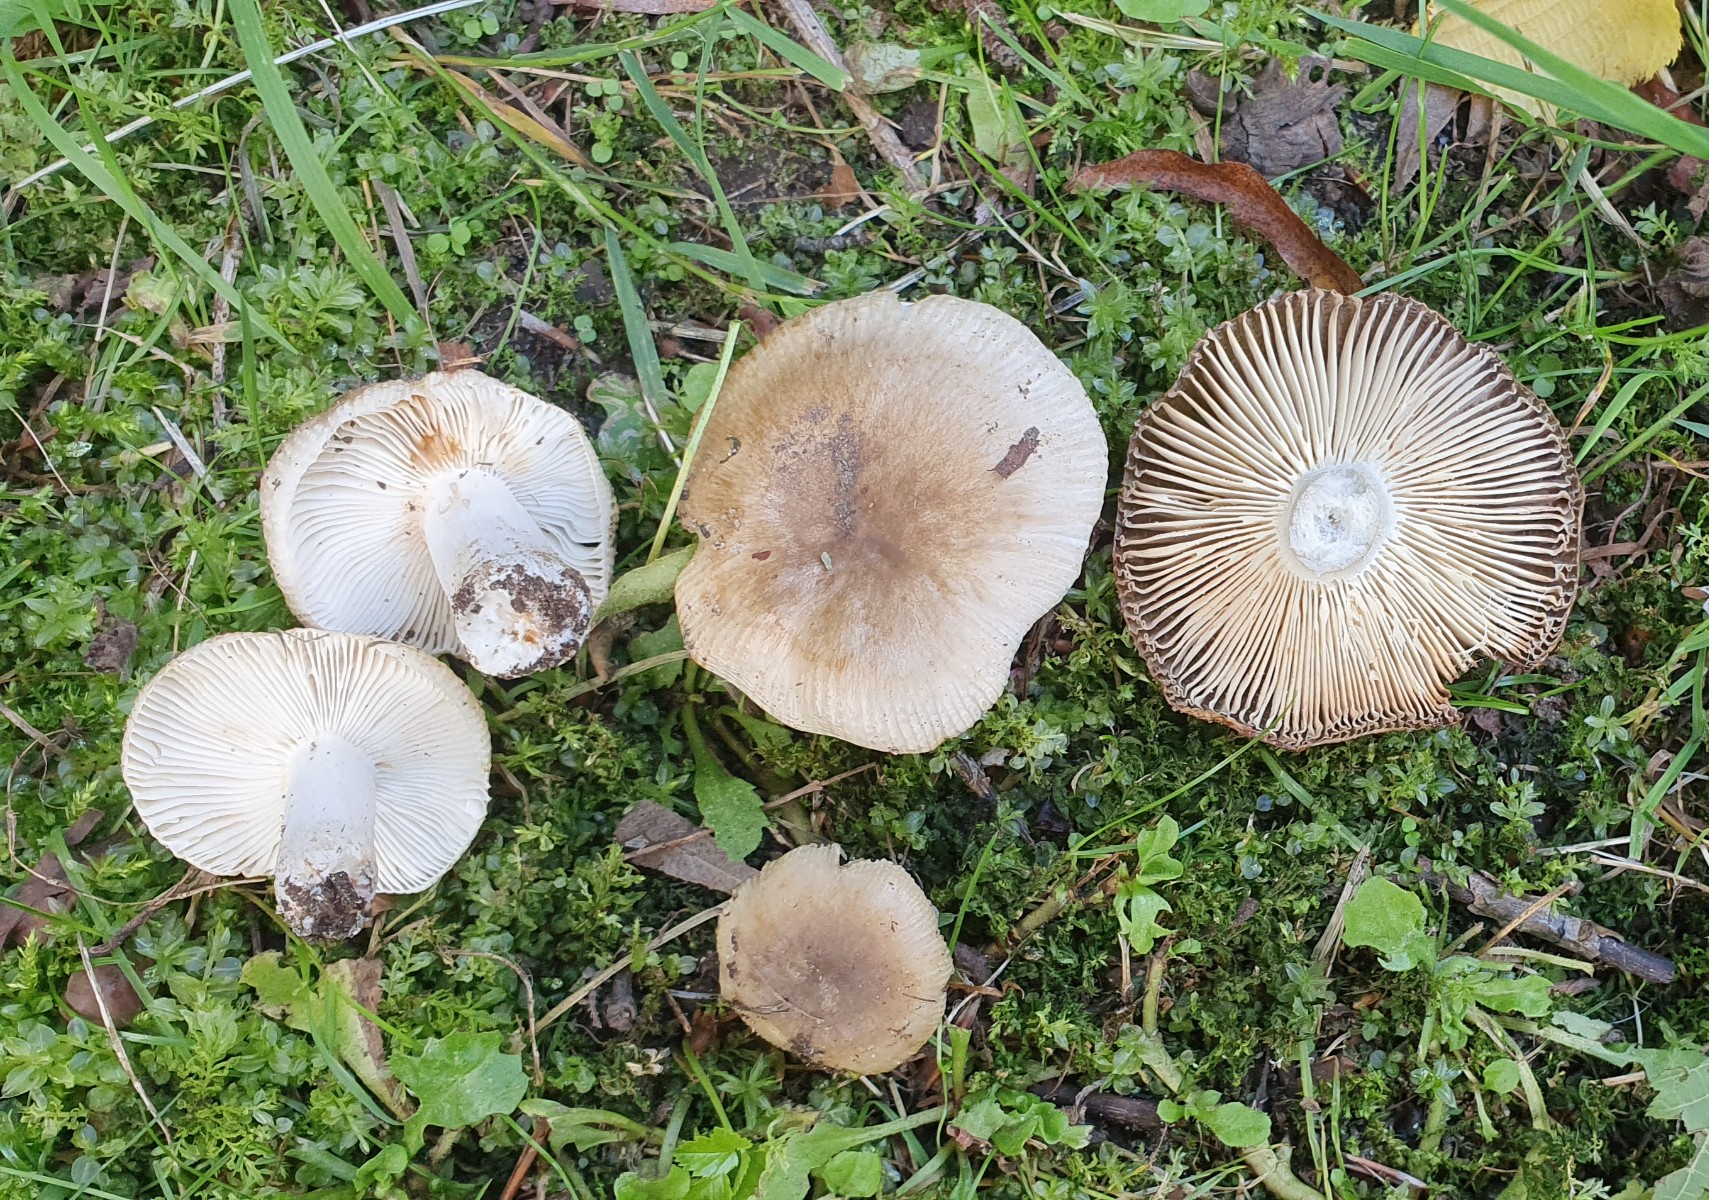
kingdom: Fungi
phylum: Basidiomycota
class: Agaricomycetes
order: Russulales
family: Russulaceae
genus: Russula
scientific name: Russula recondita
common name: mild kam-skørhat
